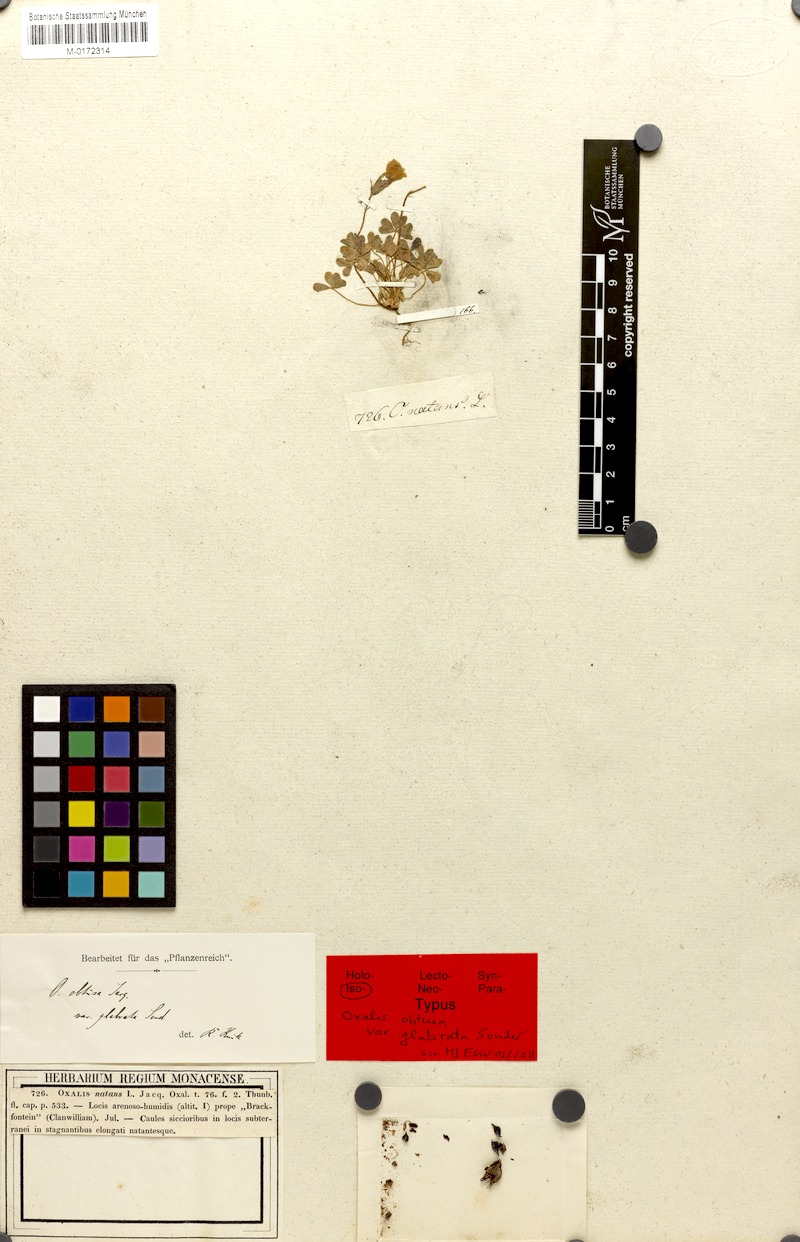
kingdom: Plantae
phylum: Tracheophyta
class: Magnoliopsida
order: Oxalidales
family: Oxalidaceae
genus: Oxalis
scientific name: Oxalis obtusa
